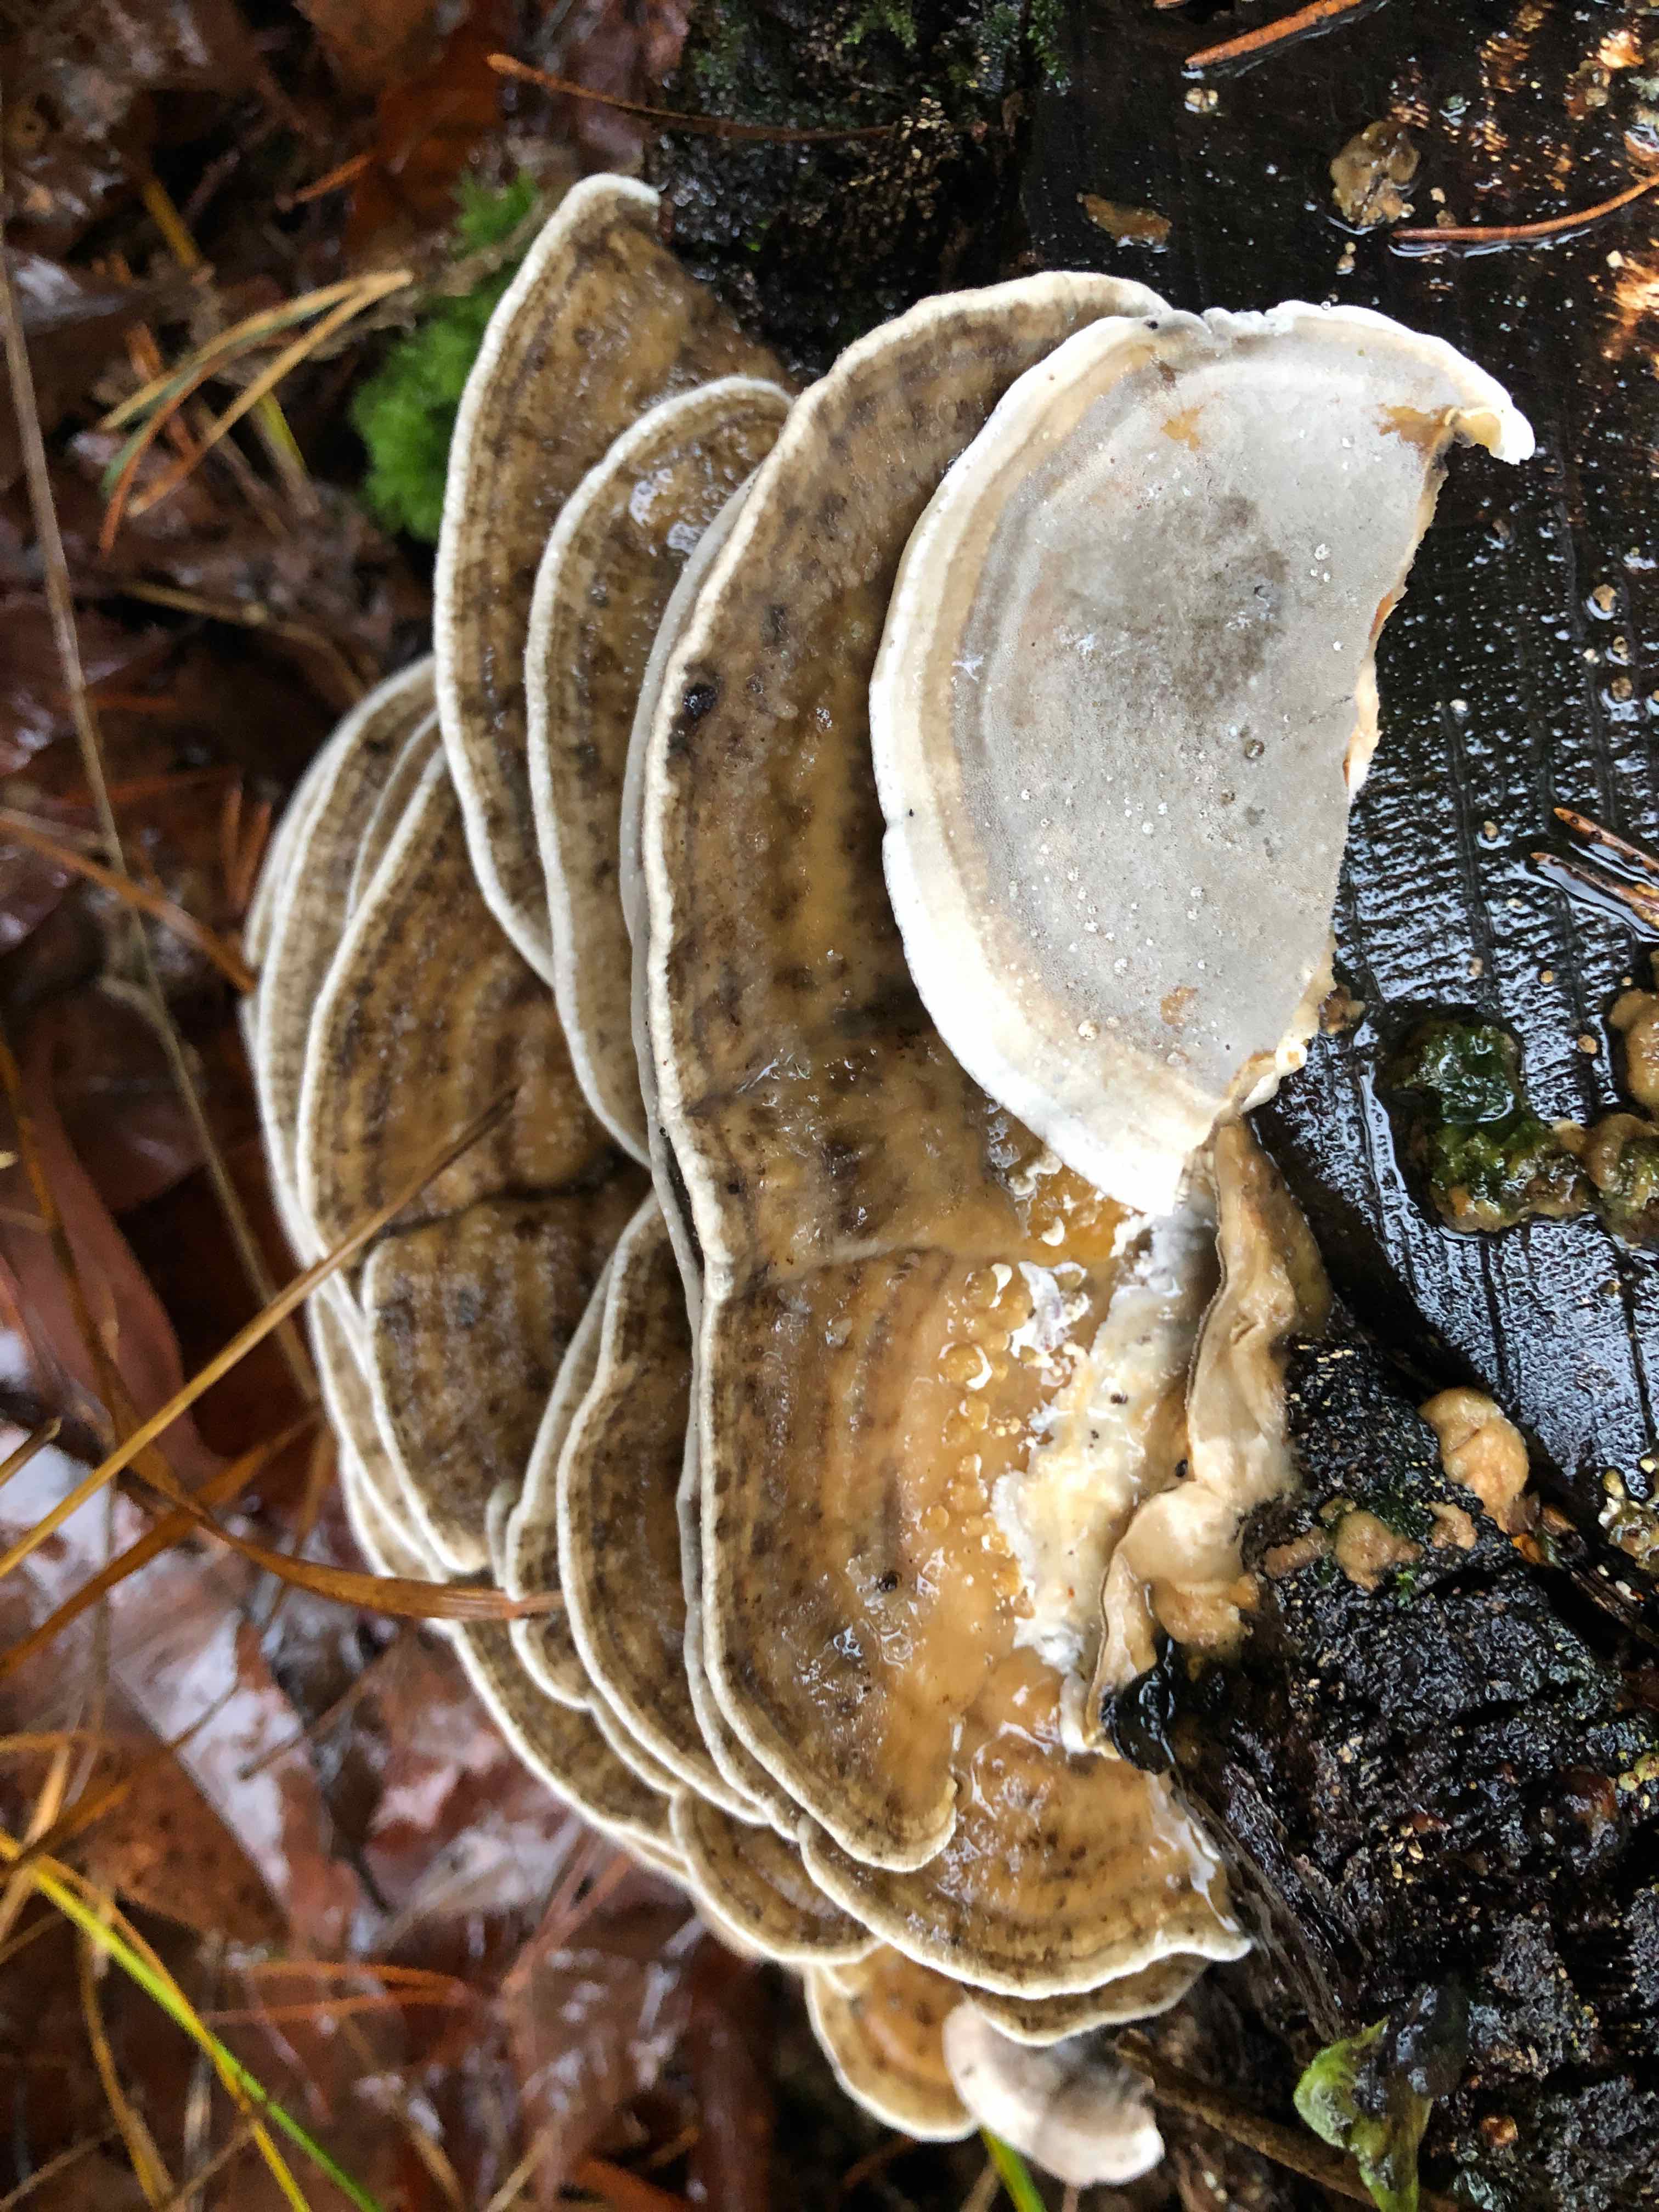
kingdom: Fungi
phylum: Basidiomycota
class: Agaricomycetes
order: Polyporales
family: Phanerochaetaceae
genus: Bjerkandera
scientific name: Bjerkandera adusta
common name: sveden sodporesvamp
